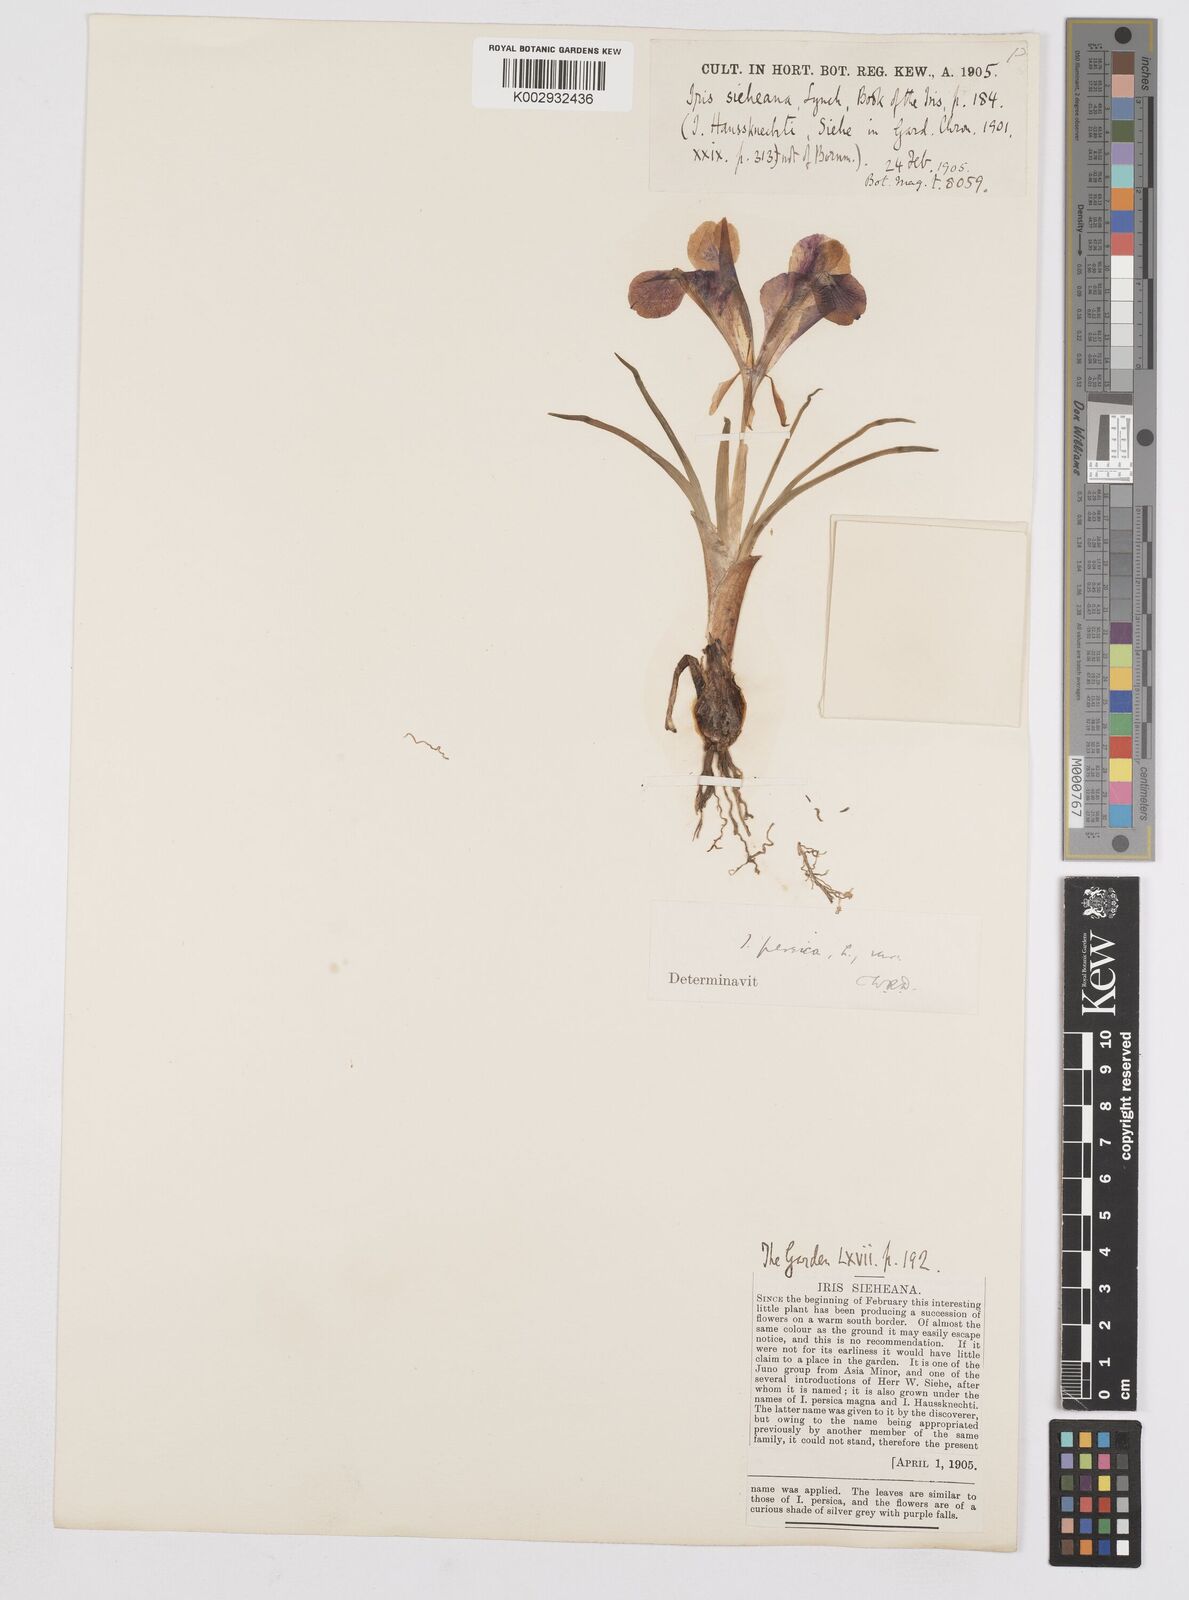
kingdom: Plantae
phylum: Tracheophyta
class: Liliopsida
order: Asparagales
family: Iridaceae
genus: Iris
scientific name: Iris persica
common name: Persian iris
